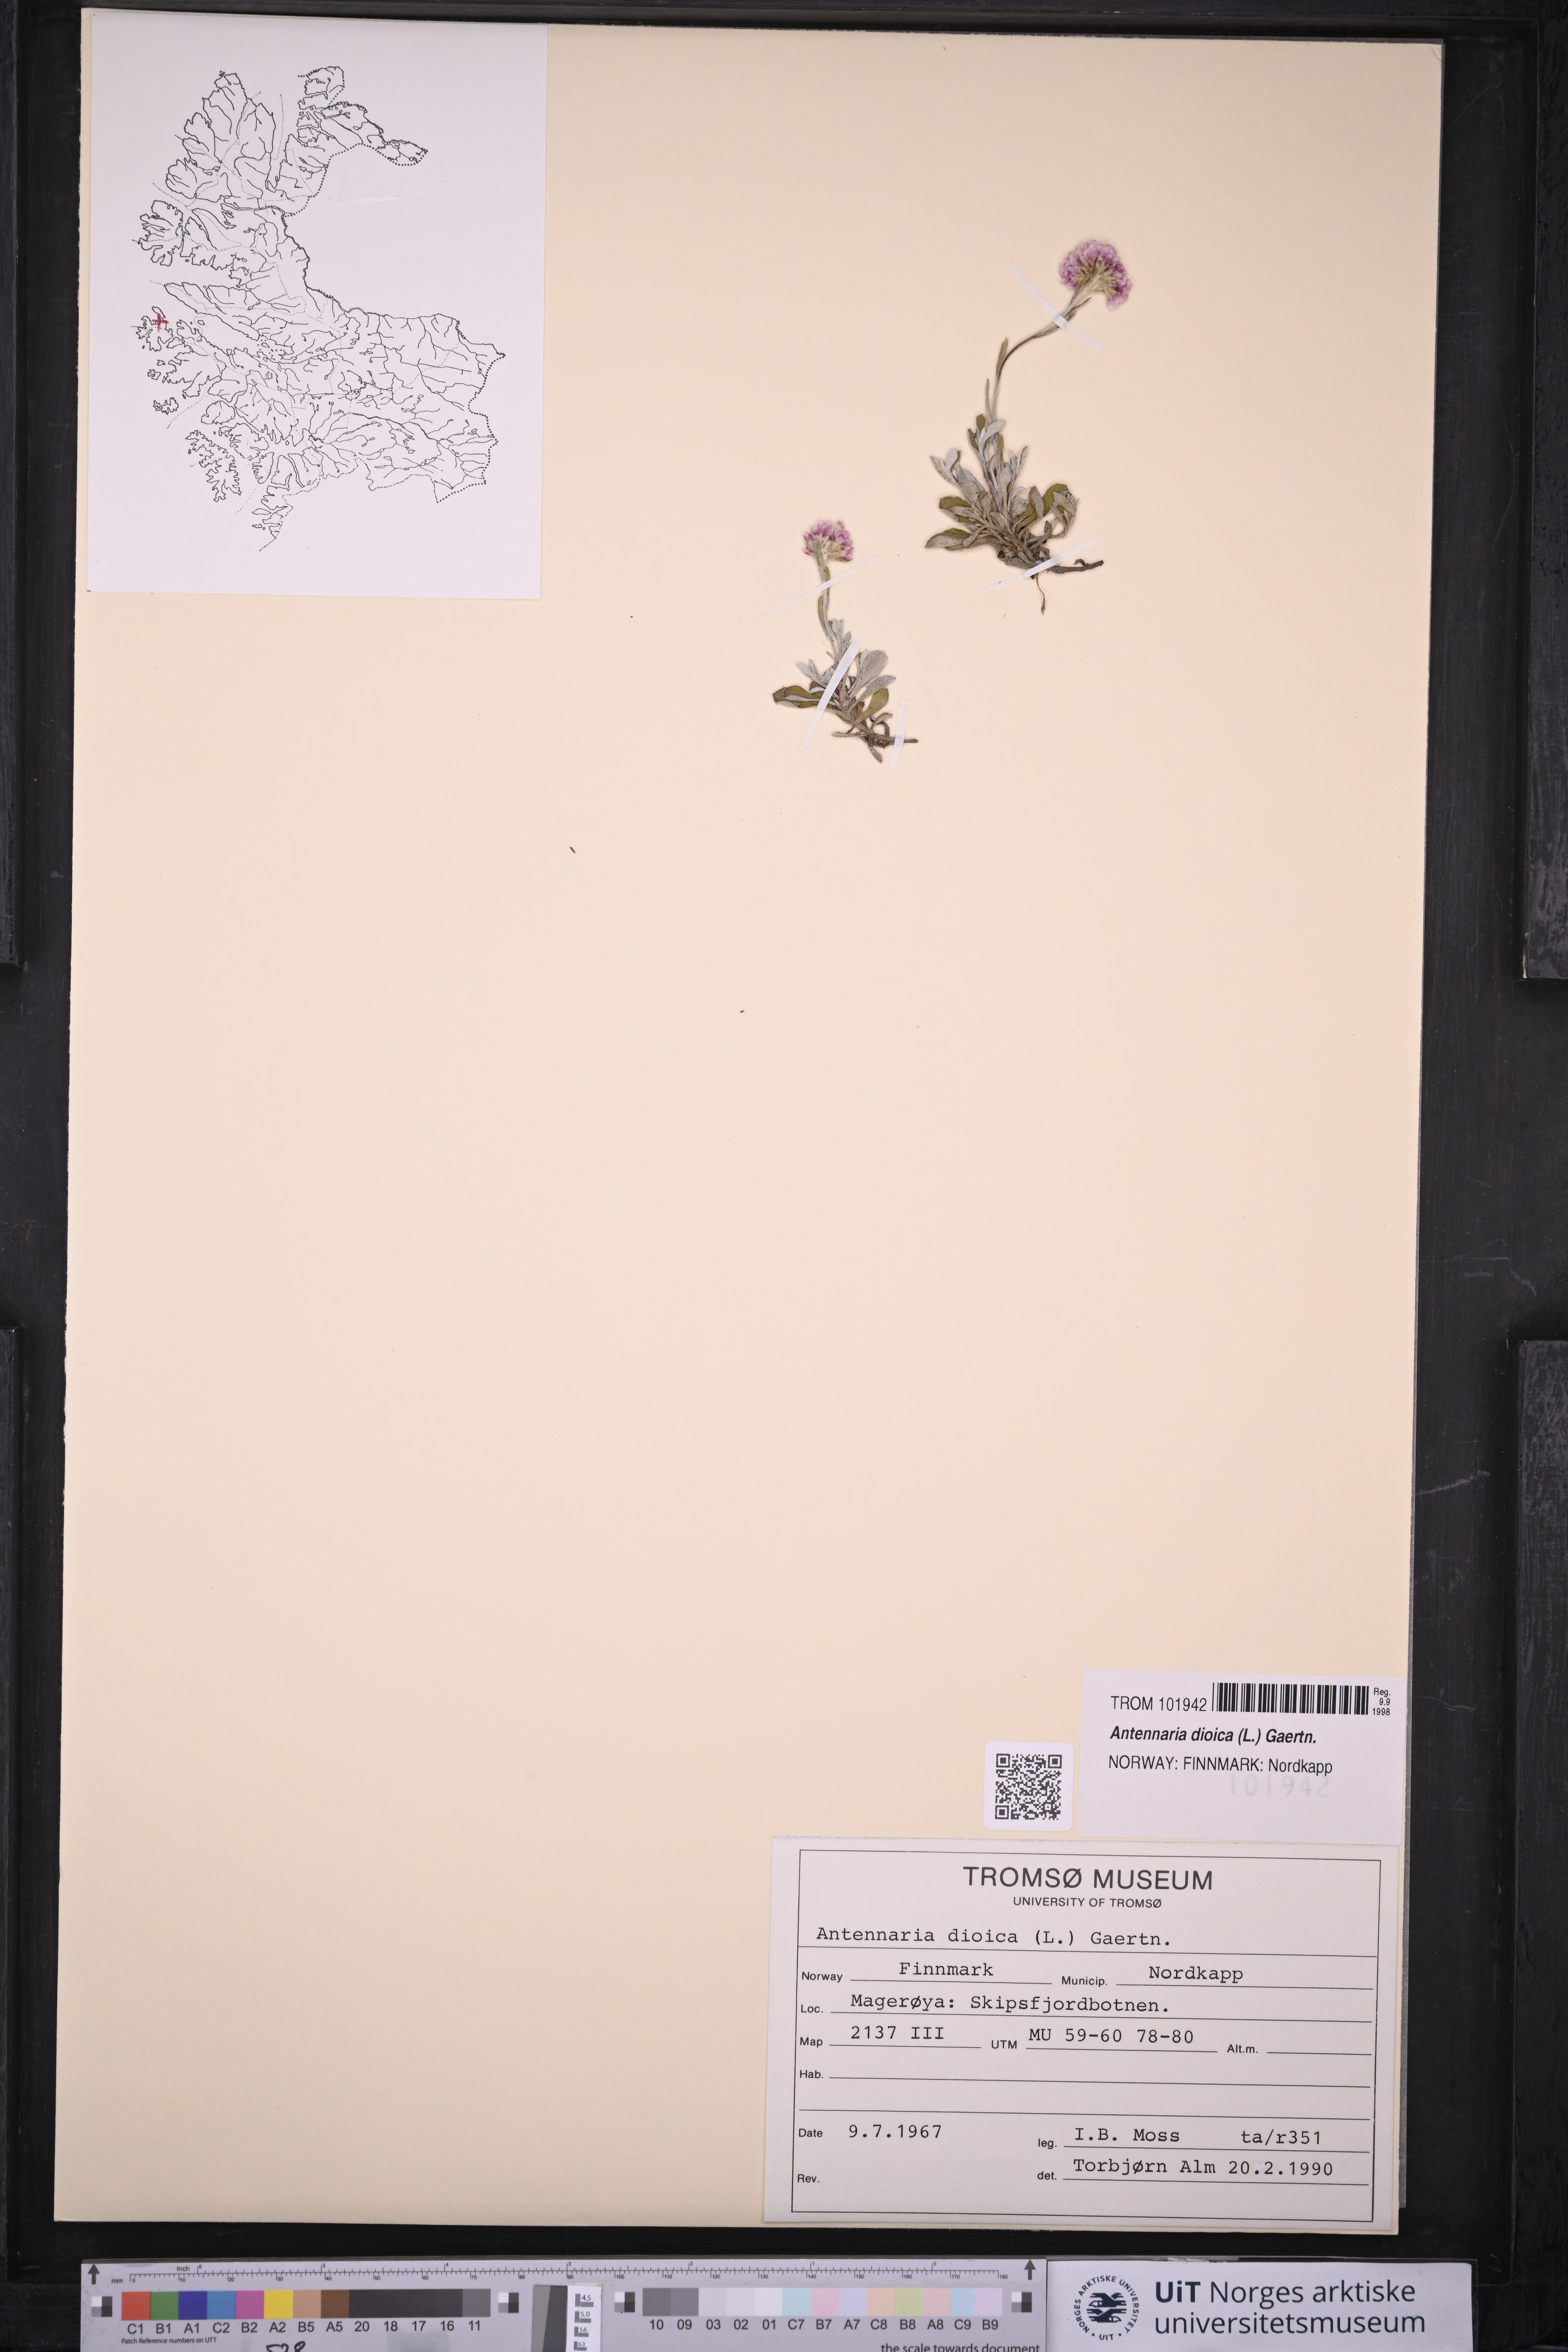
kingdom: Plantae
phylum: Tracheophyta
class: Magnoliopsida
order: Asterales
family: Asteraceae
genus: Antennaria
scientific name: Antennaria dioica
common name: Mountain everlasting
